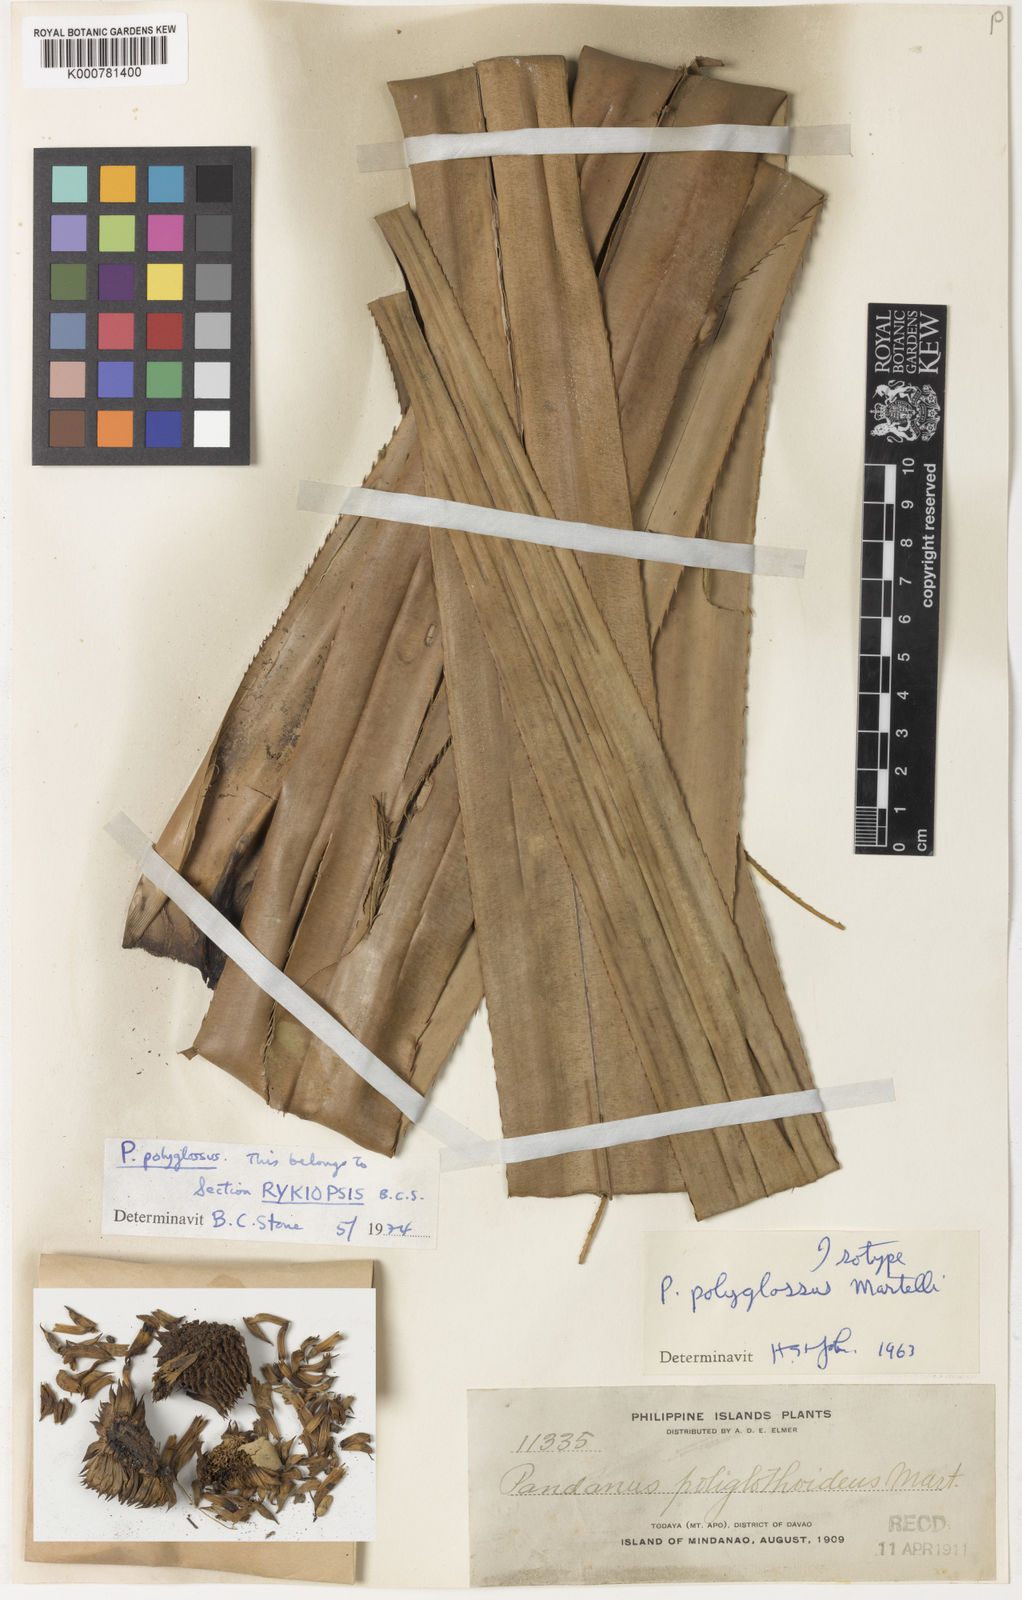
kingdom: Plantae
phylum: Tracheophyta
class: Liliopsida
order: Pandanales
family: Pandanaceae
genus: Pandanus
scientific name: Pandanus polyglossus
